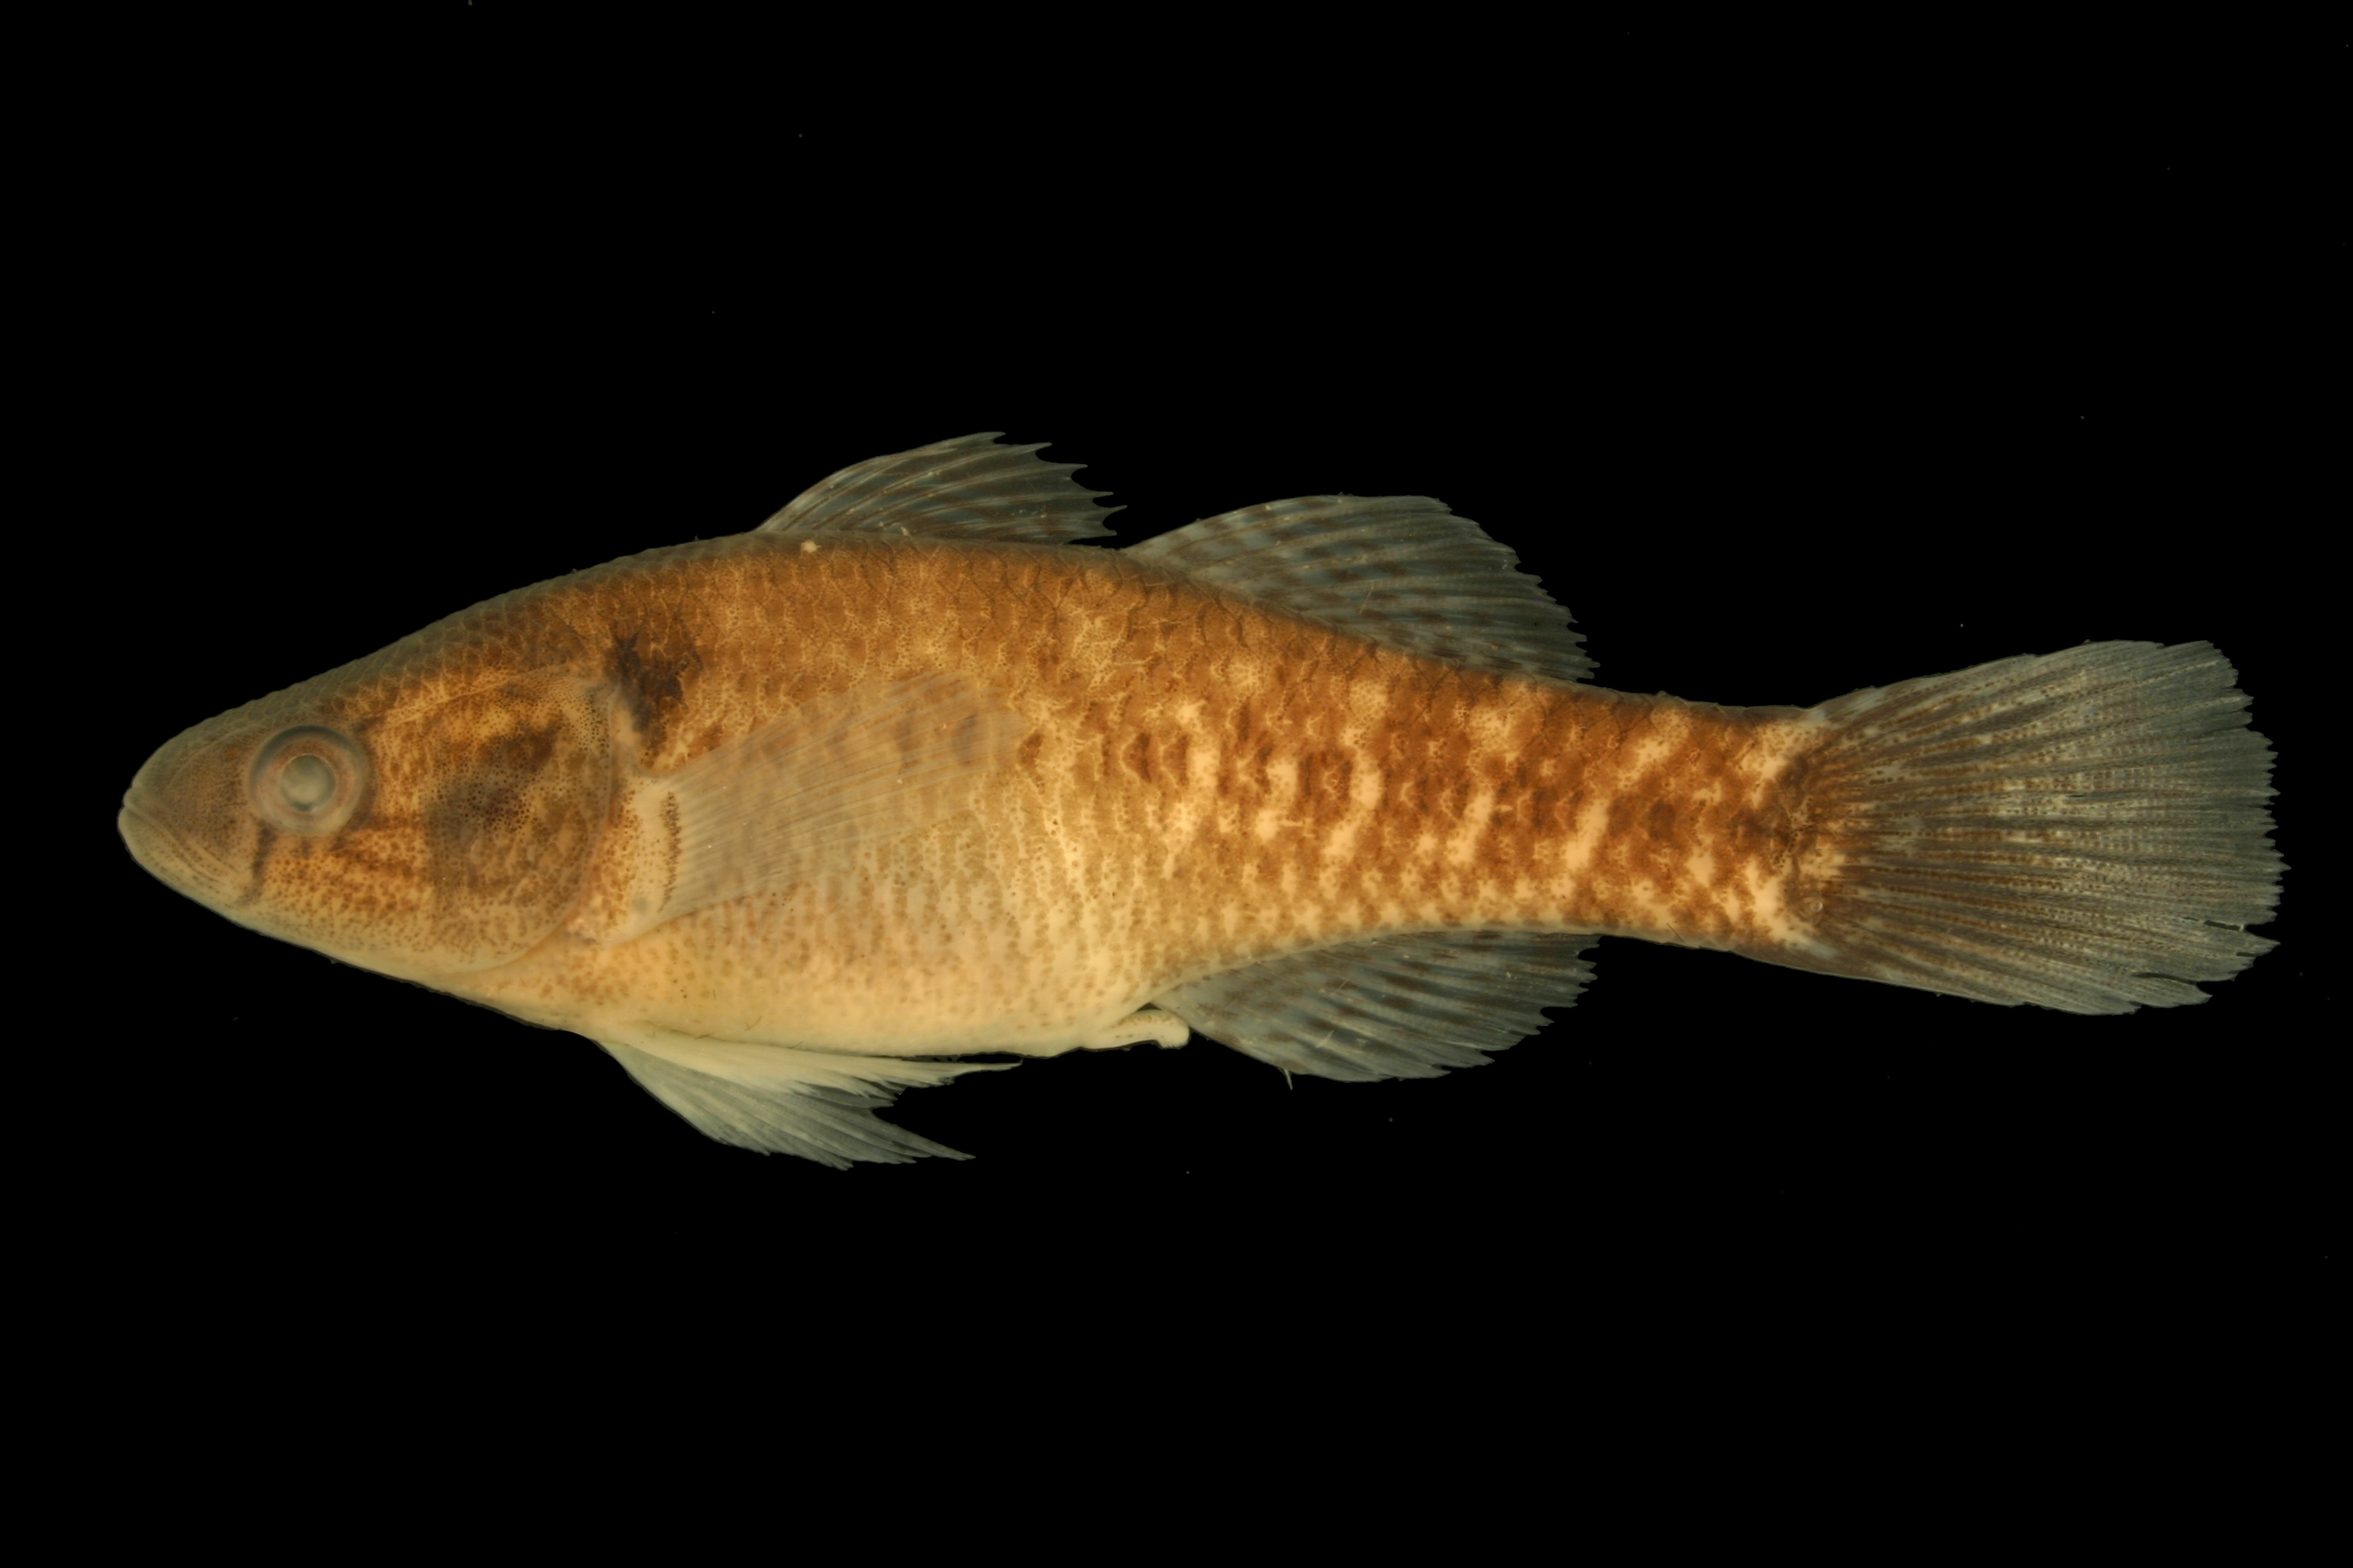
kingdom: Animalia
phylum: Chordata
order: Perciformes
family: Eleotridae
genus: Dormitator
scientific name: Dormitator maculatus
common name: Fat sleeper
